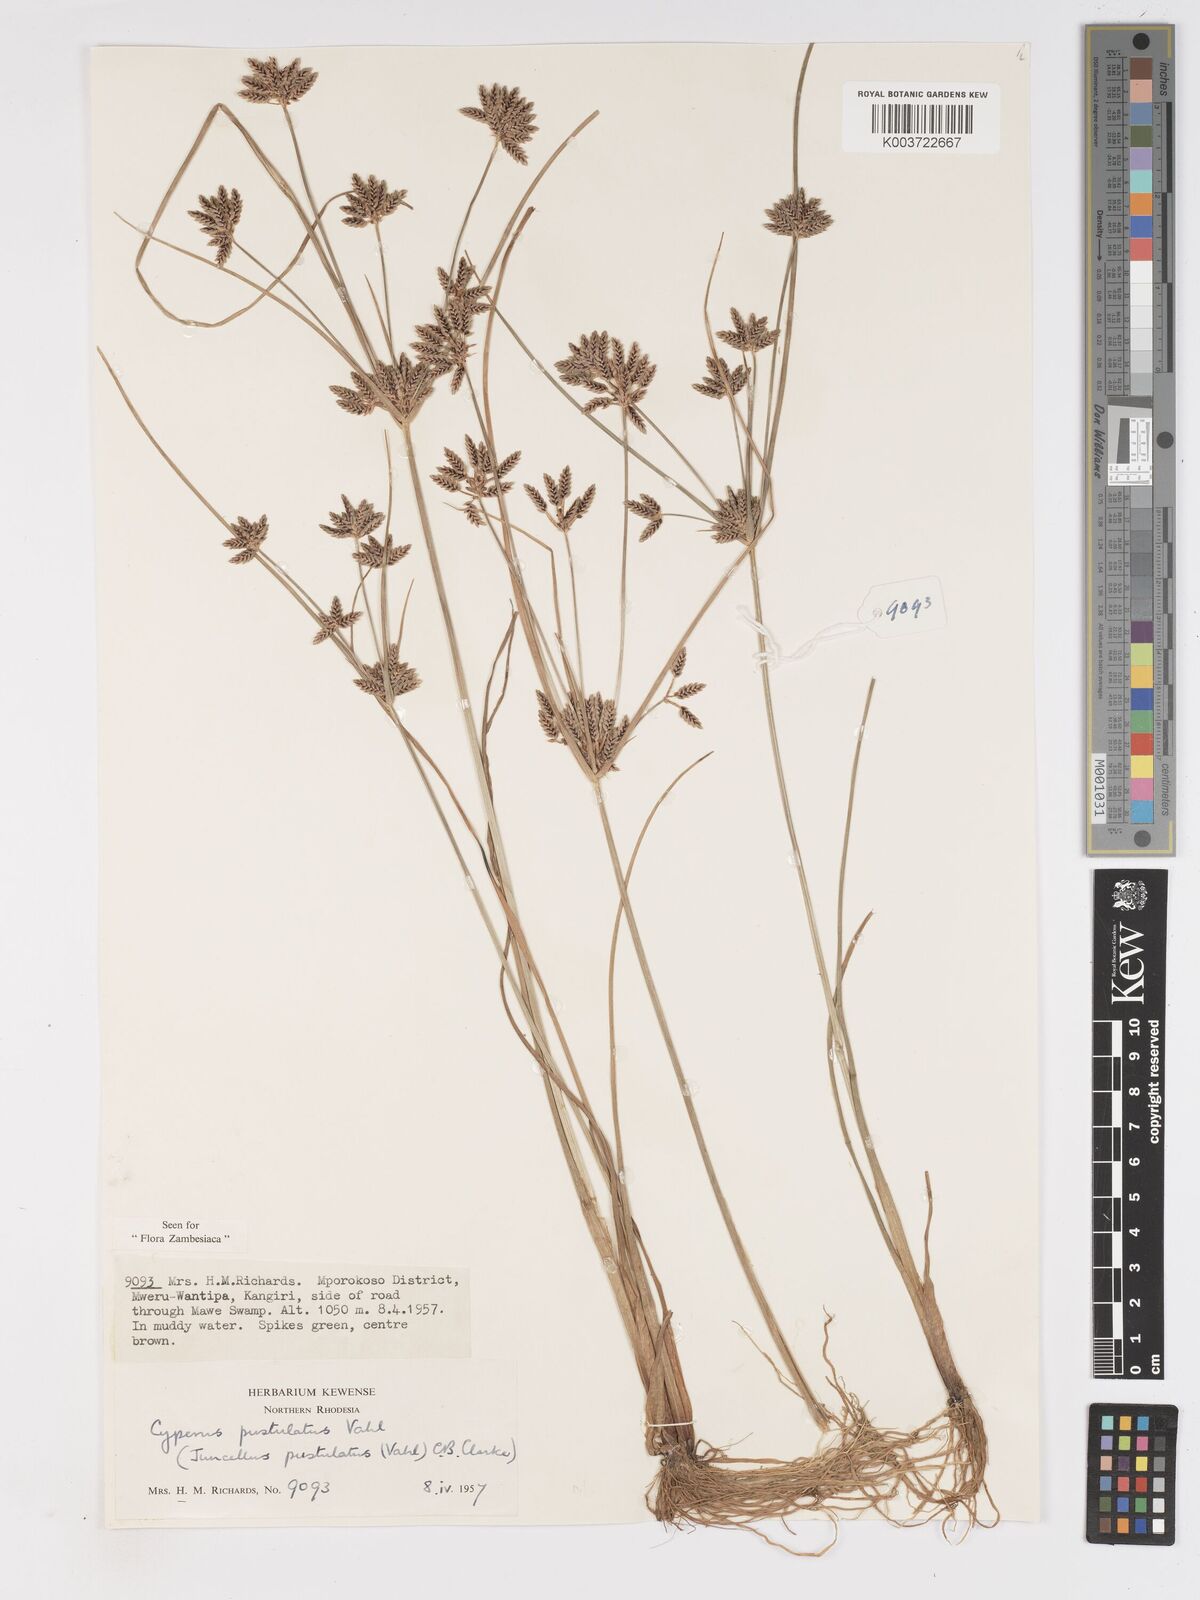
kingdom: Plantae
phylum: Tracheophyta
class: Liliopsida
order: Poales
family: Cyperaceae
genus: Cyperus
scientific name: Cyperus pustulatus
